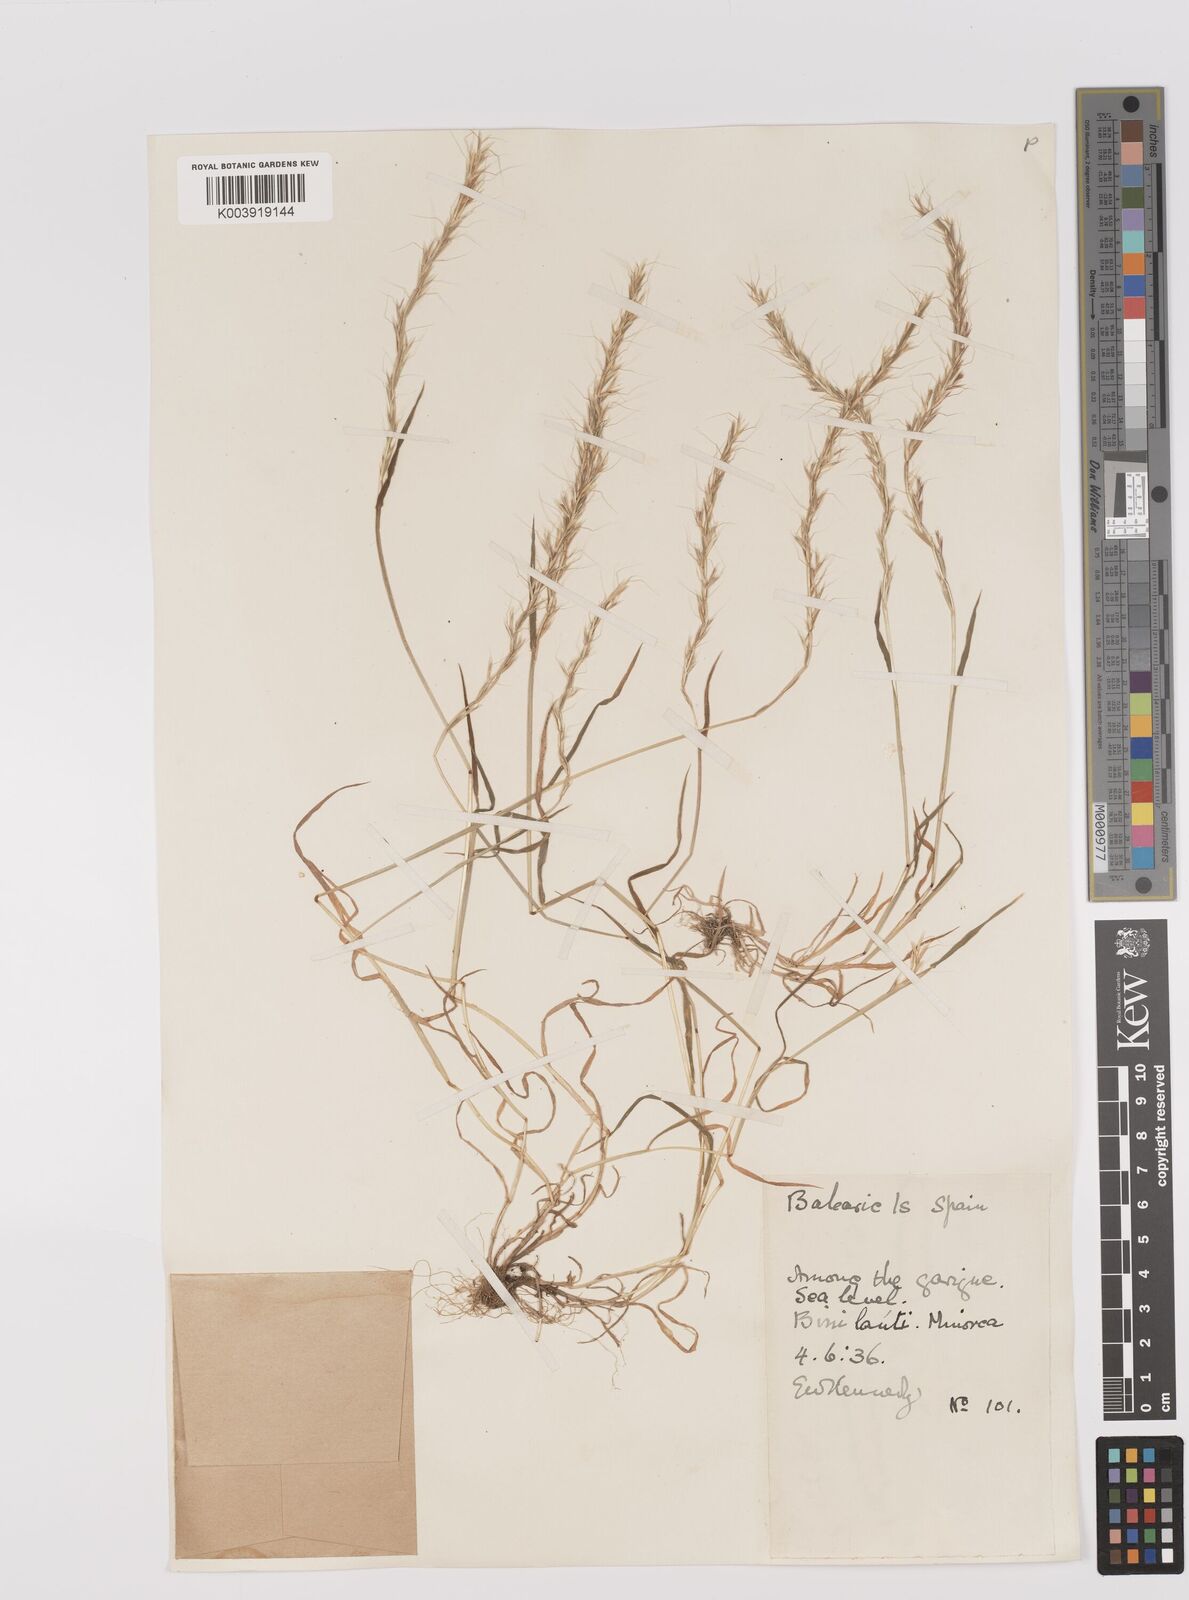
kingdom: Plantae
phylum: Tracheophyta
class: Liliopsida
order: Poales
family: Poaceae
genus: Gaudinia
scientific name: Gaudinia fragilis
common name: French oat-grass
